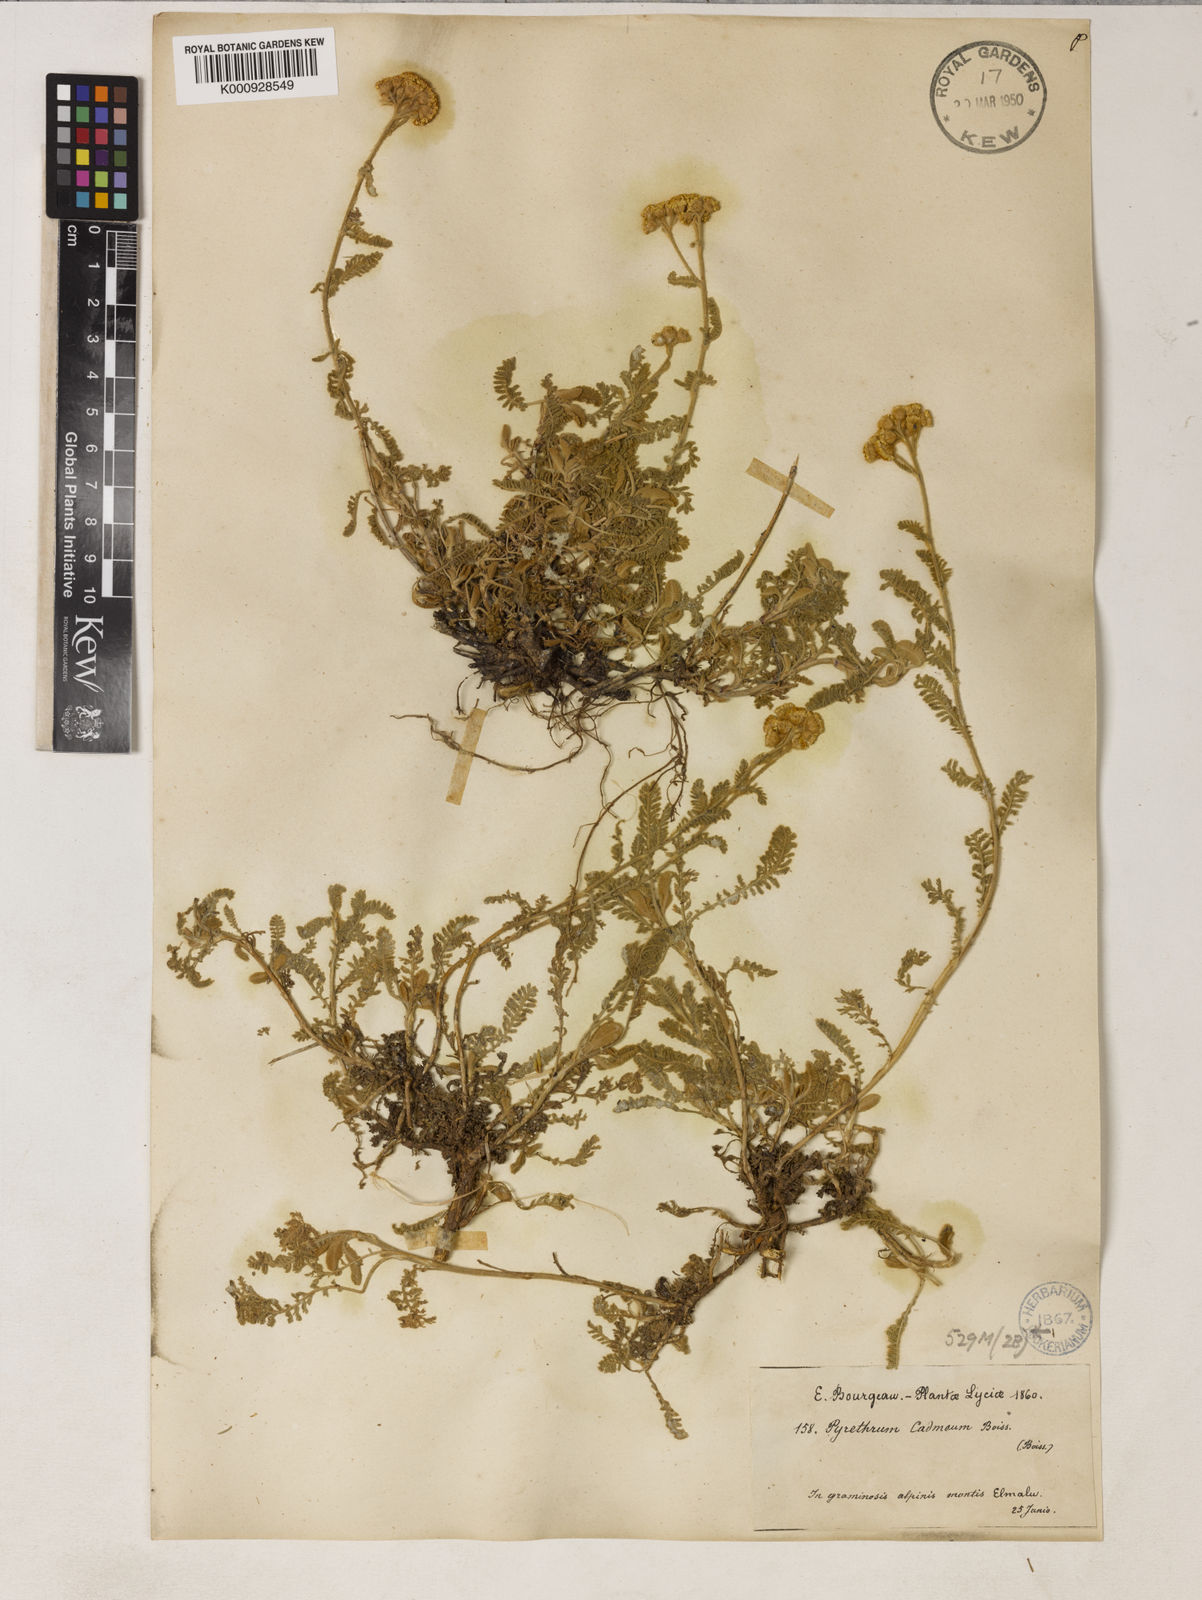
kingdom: Plantae
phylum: Tracheophyta
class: Magnoliopsida
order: Asterales
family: Asteraceae
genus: Tanacetum
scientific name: Tanacetum cadmeum
